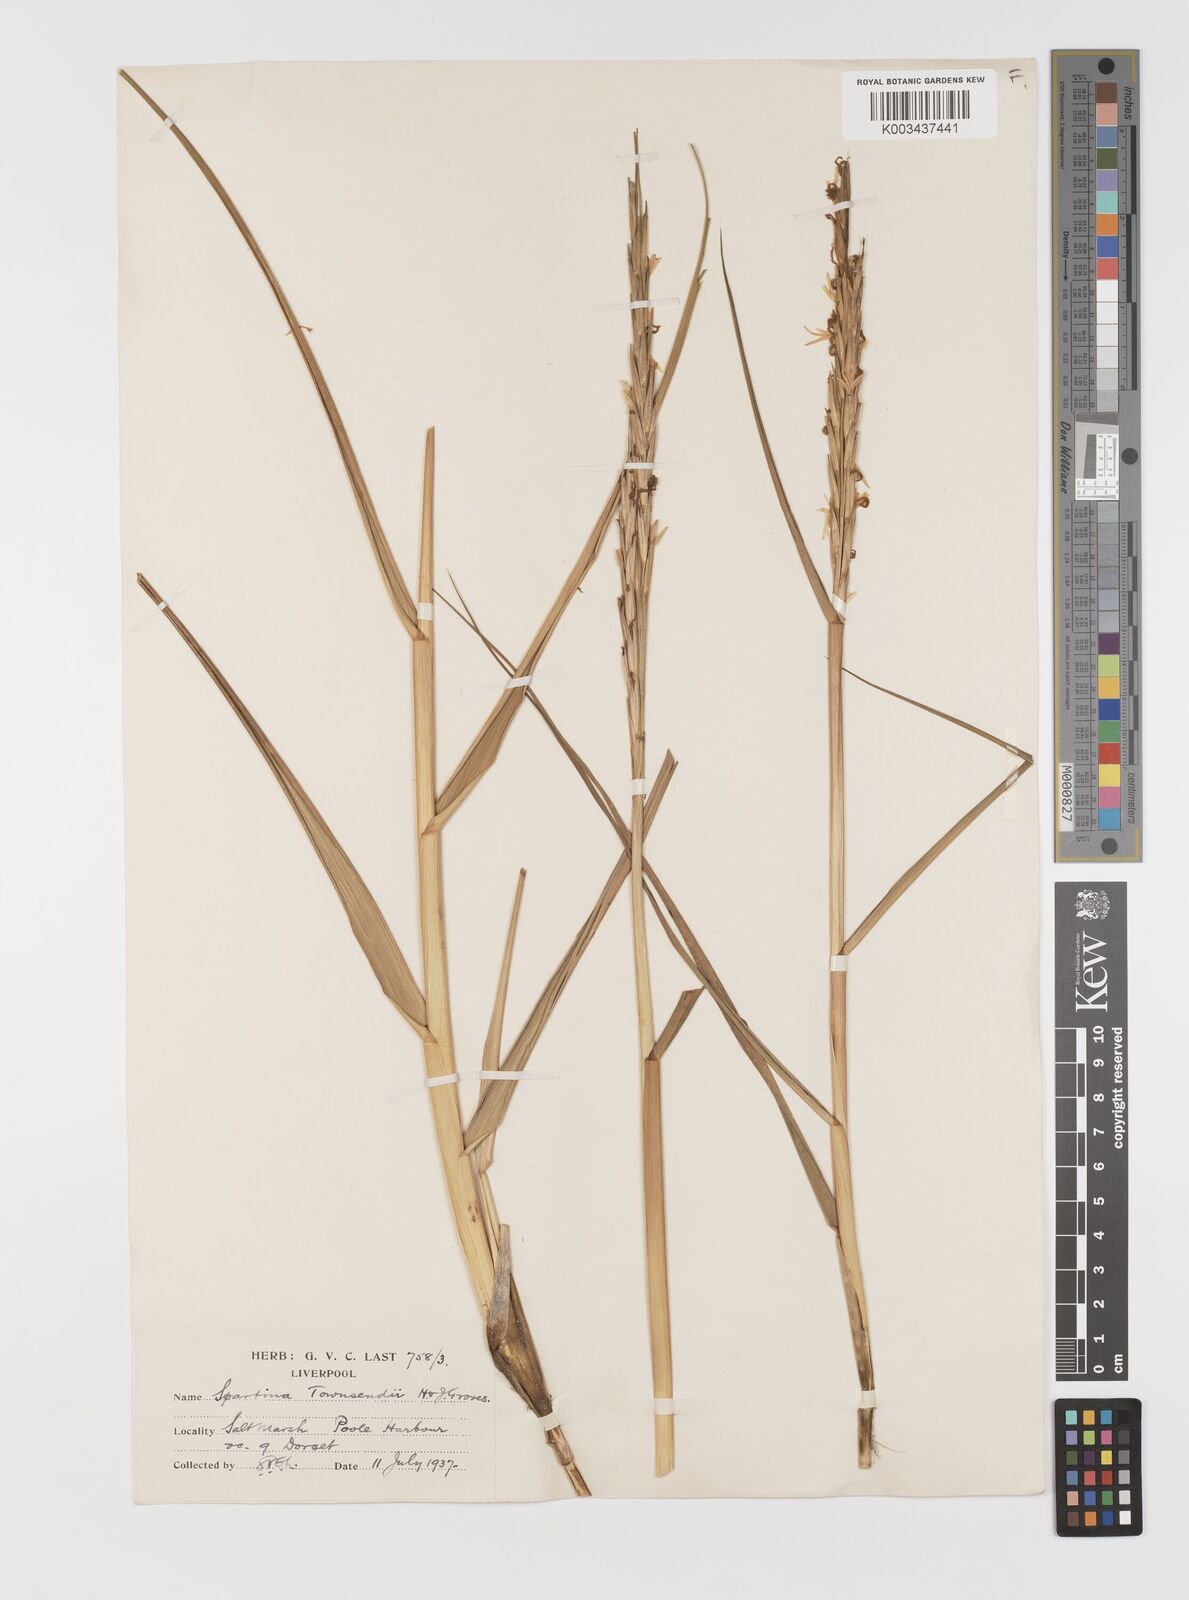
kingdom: Plantae
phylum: Tracheophyta
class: Liliopsida
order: Poales
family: Poaceae
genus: Sporobolus
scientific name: Sporobolus anglicus
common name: English cordgrass
